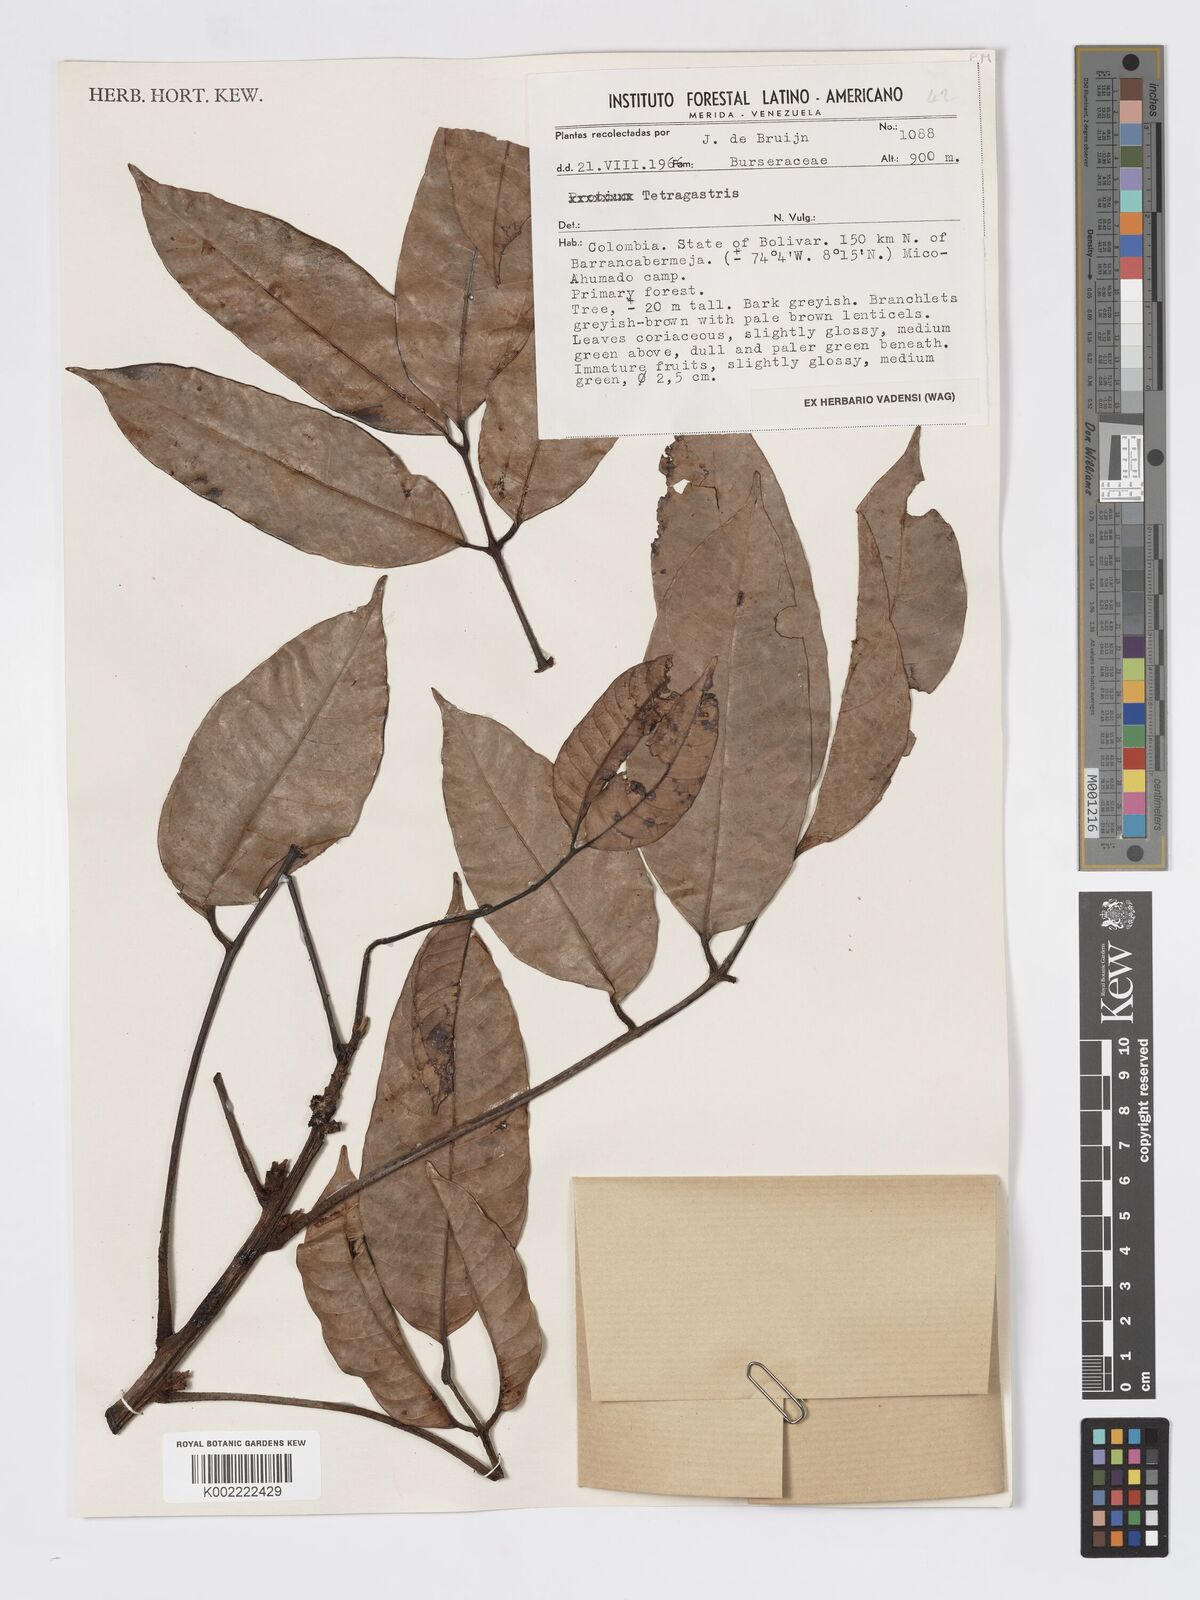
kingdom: Plantae
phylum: Tracheophyta
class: Magnoliopsida
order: Sapindales
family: Burseraceae
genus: Tetragastris
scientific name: Tetragastris
